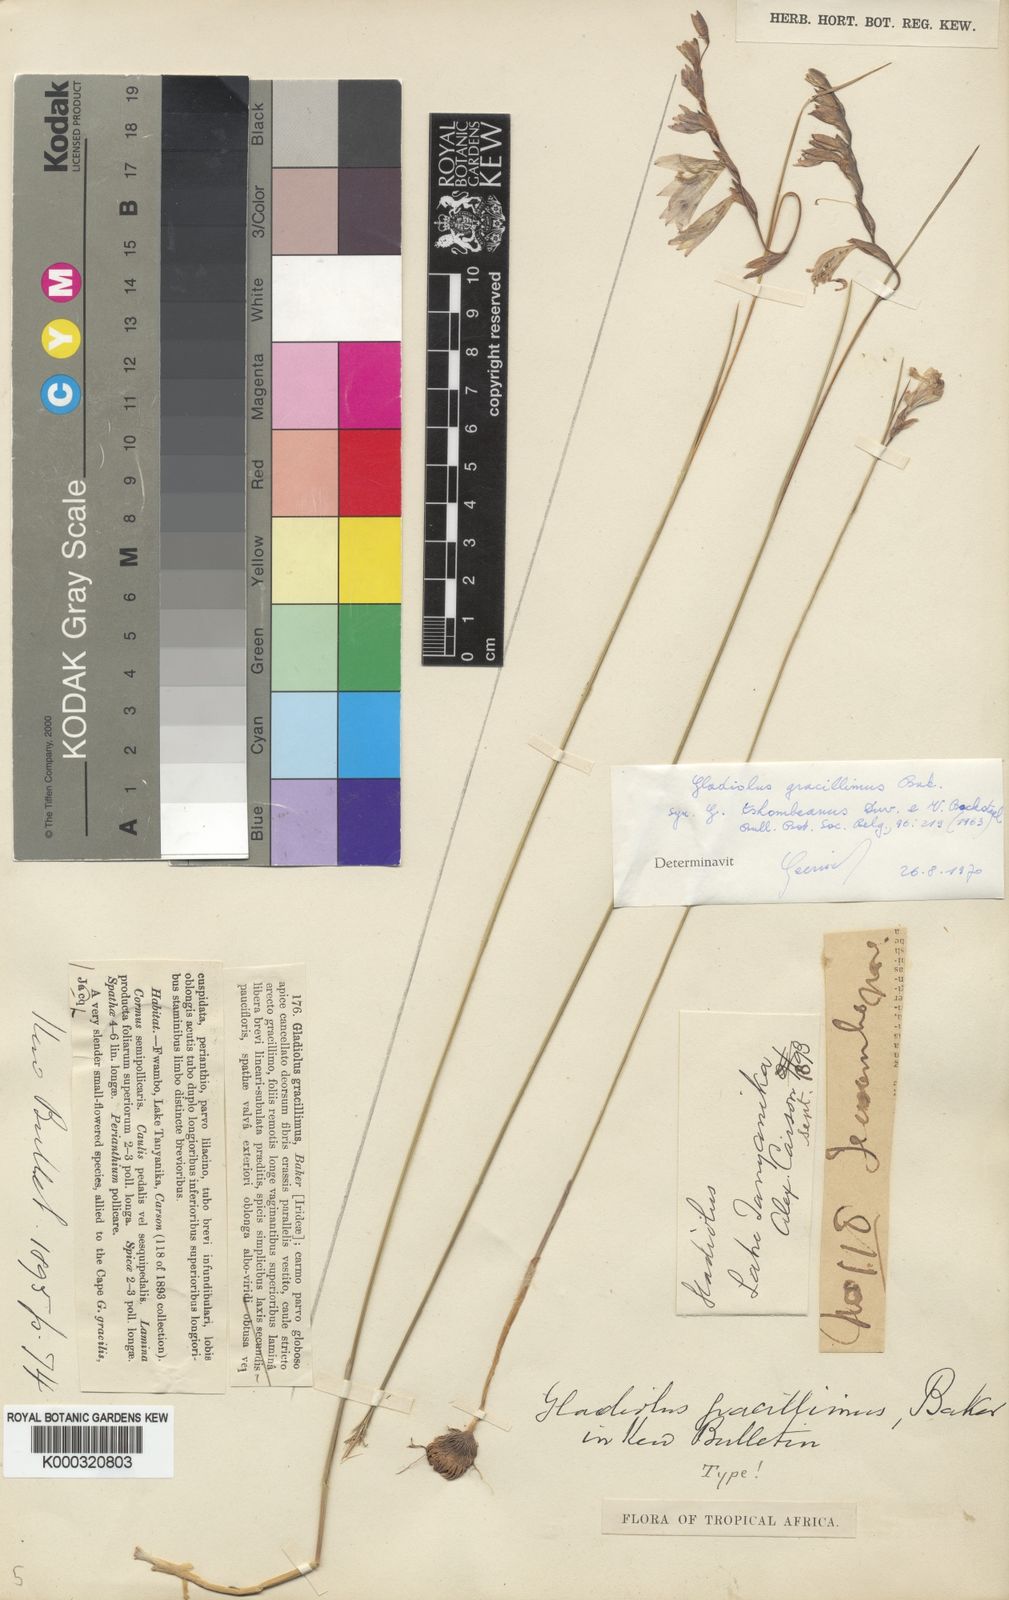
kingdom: Plantae
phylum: Tracheophyta
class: Liliopsida
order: Asparagales
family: Iridaceae
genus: Gladiolus
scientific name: Gladiolus gracillimus
